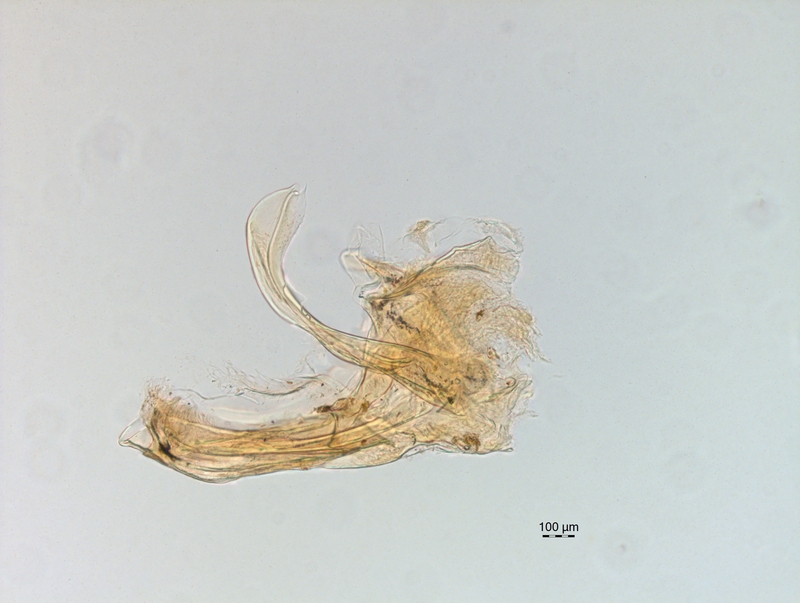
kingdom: Animalia
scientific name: Animalia
